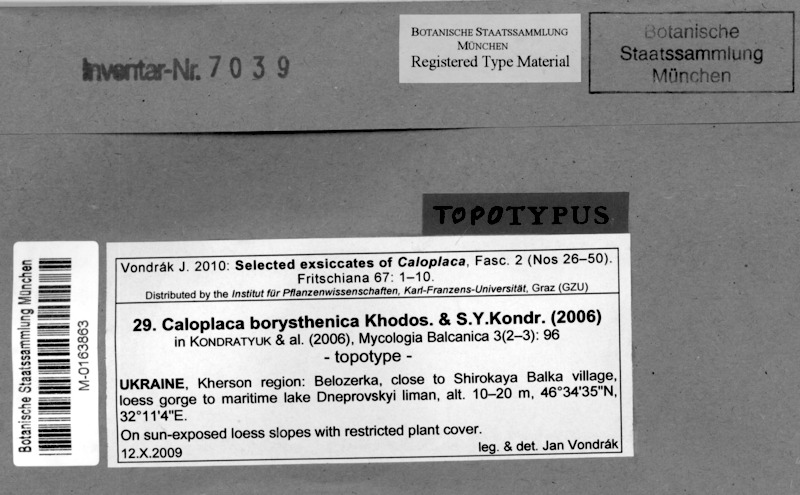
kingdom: Fungi
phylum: Ascomycota
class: Lecanoromycetes
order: Teloschistales
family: Teloschistaceae
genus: Xanthocarpia
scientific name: Xanthocarpia borysthenica
